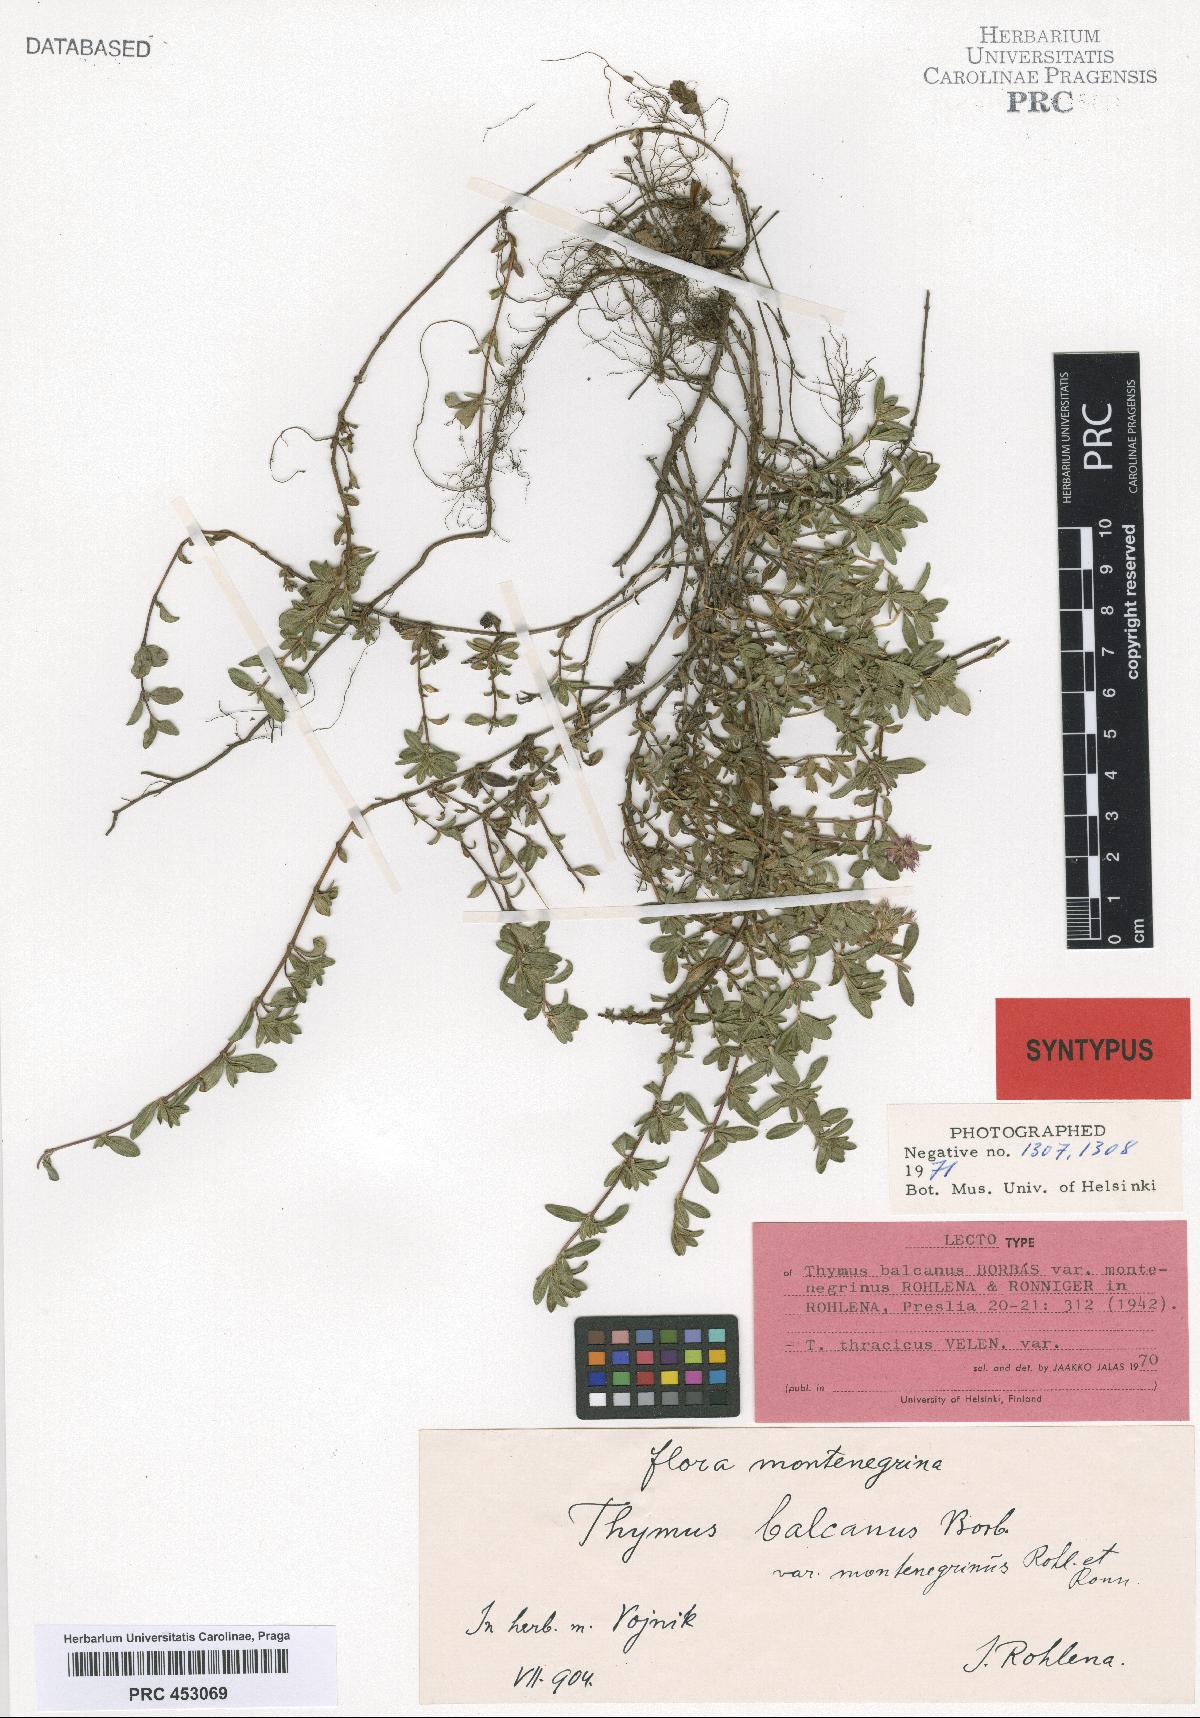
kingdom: Plantae
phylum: Tracheophyta
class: Magnoliopsida
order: Lamiales
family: Lamiaceae
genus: Thymus
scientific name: Thymus thracicus
